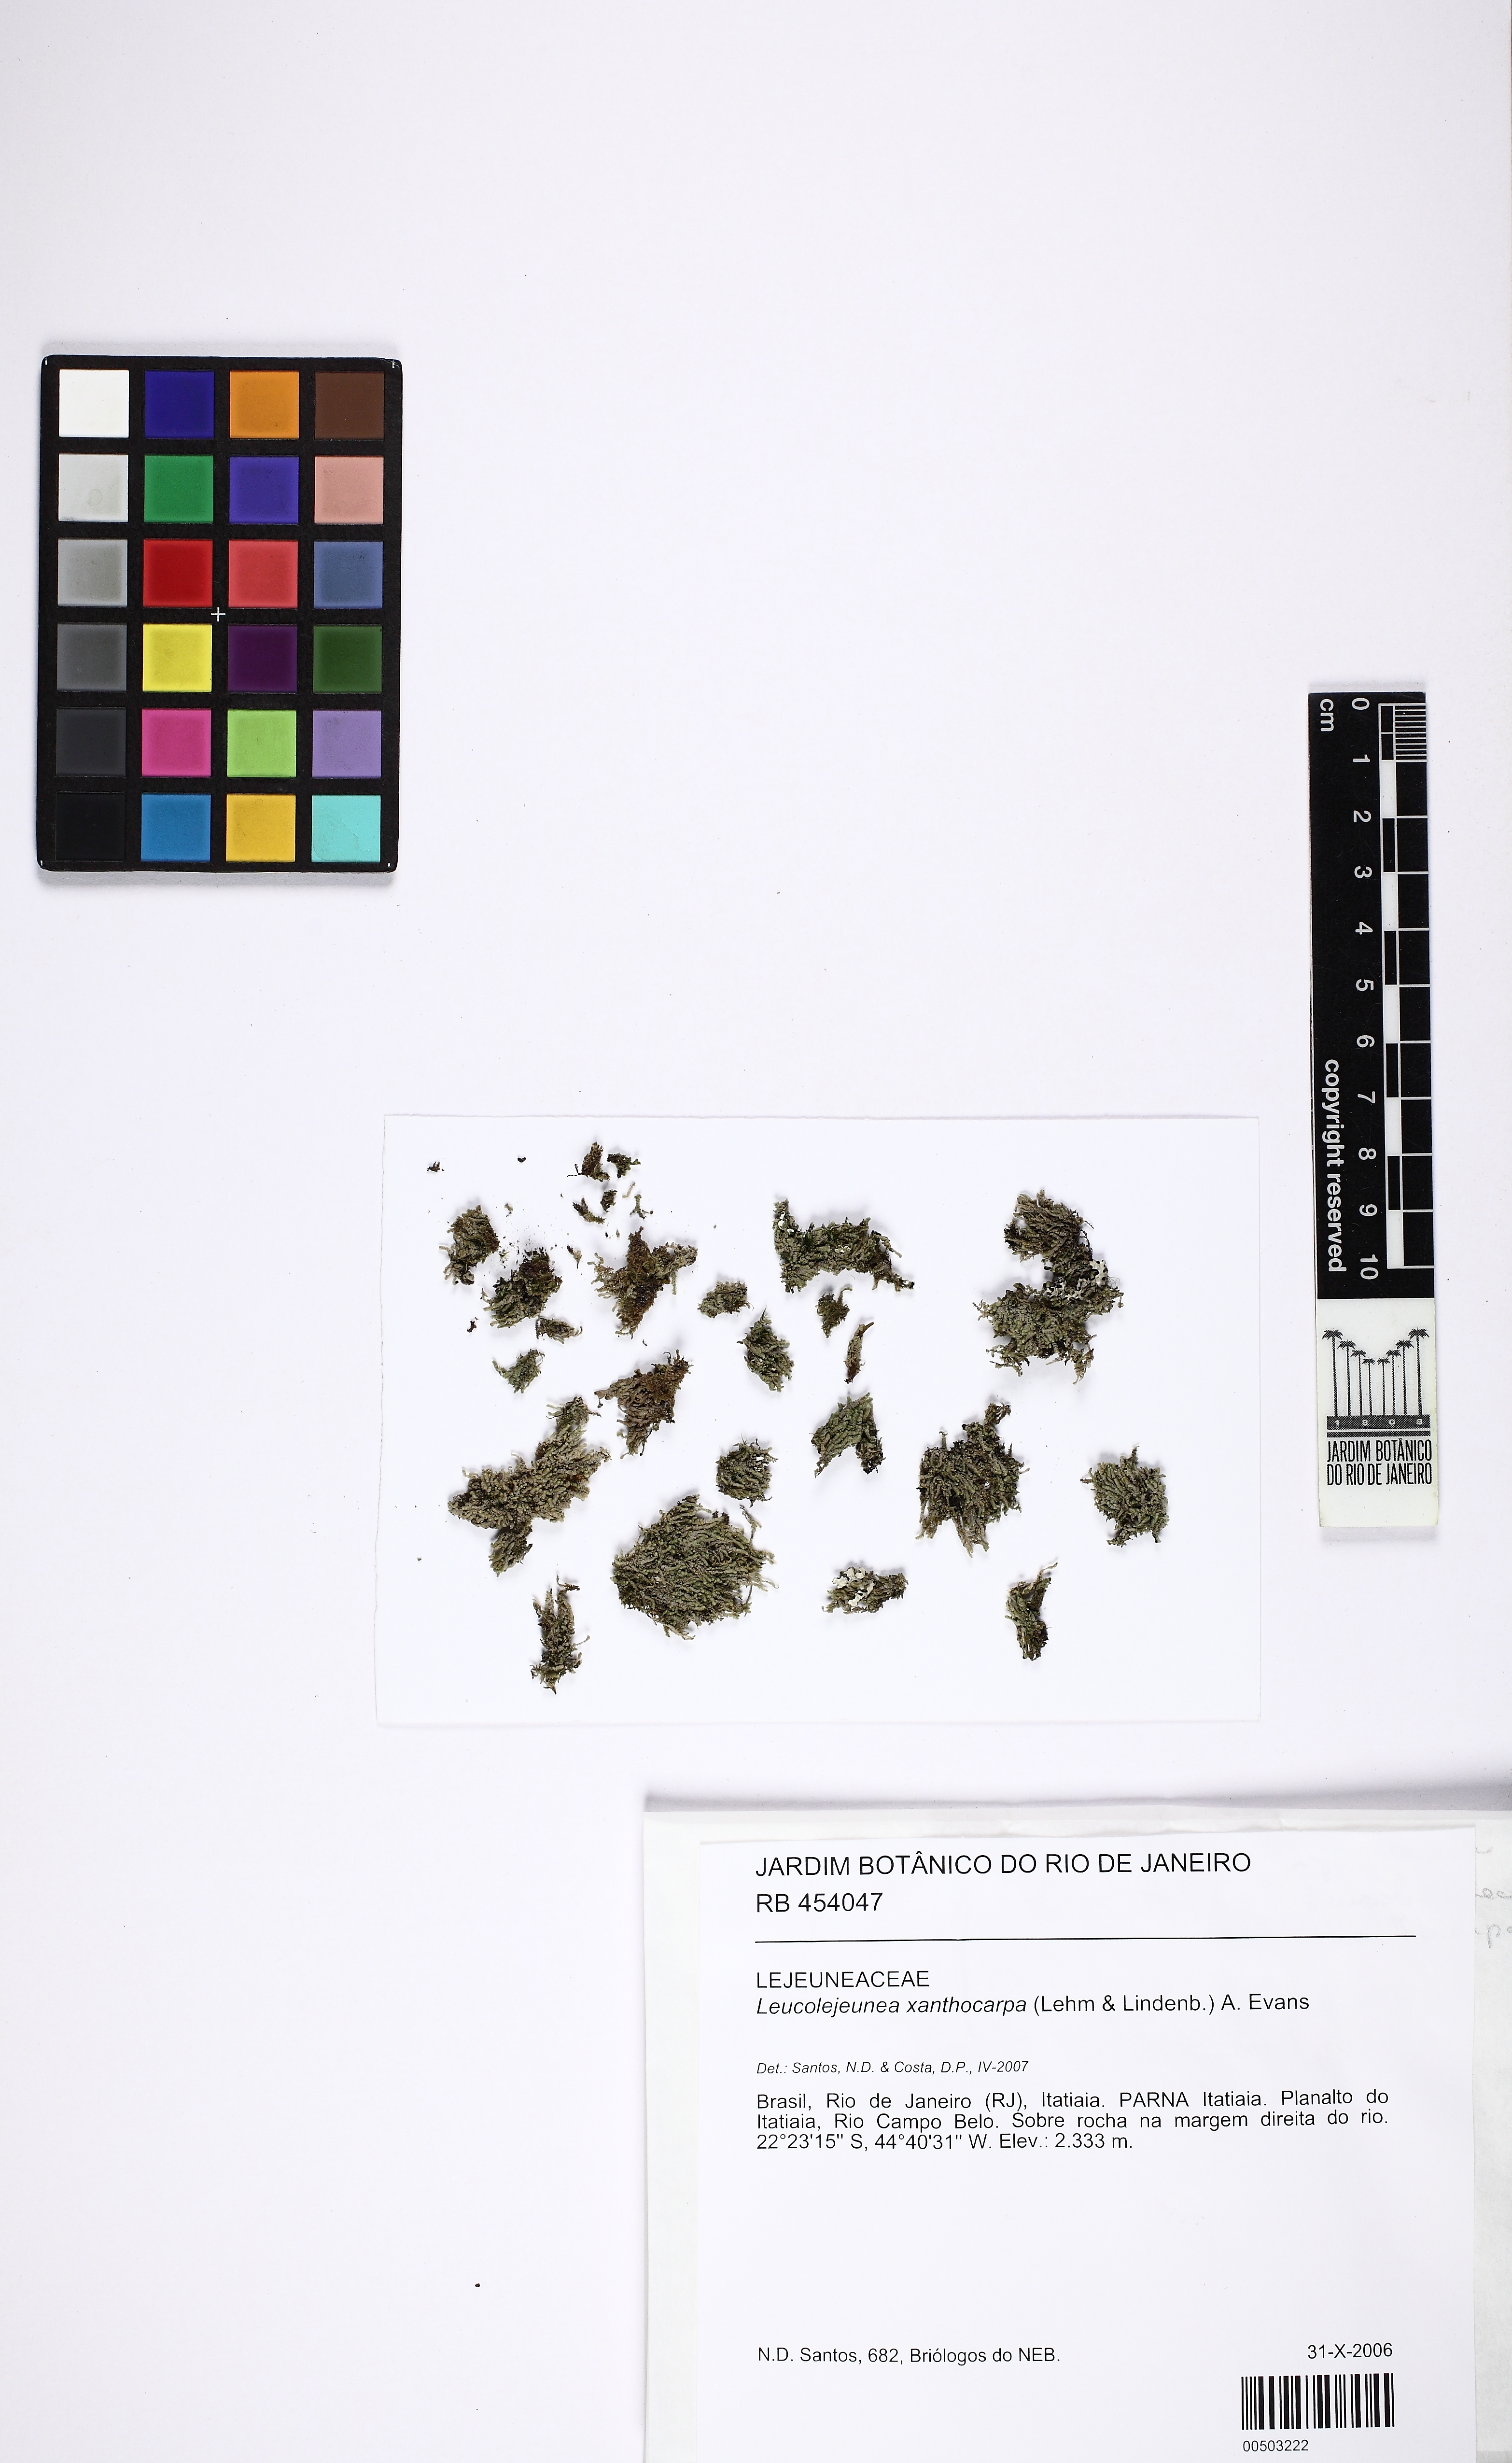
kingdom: Plantae
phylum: Marchantiophyta
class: Jungermanniopsida
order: Porellales
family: Lejeuneaceae
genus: Cheilolejeunea
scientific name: Cheilolejeunea xanthocarpa
